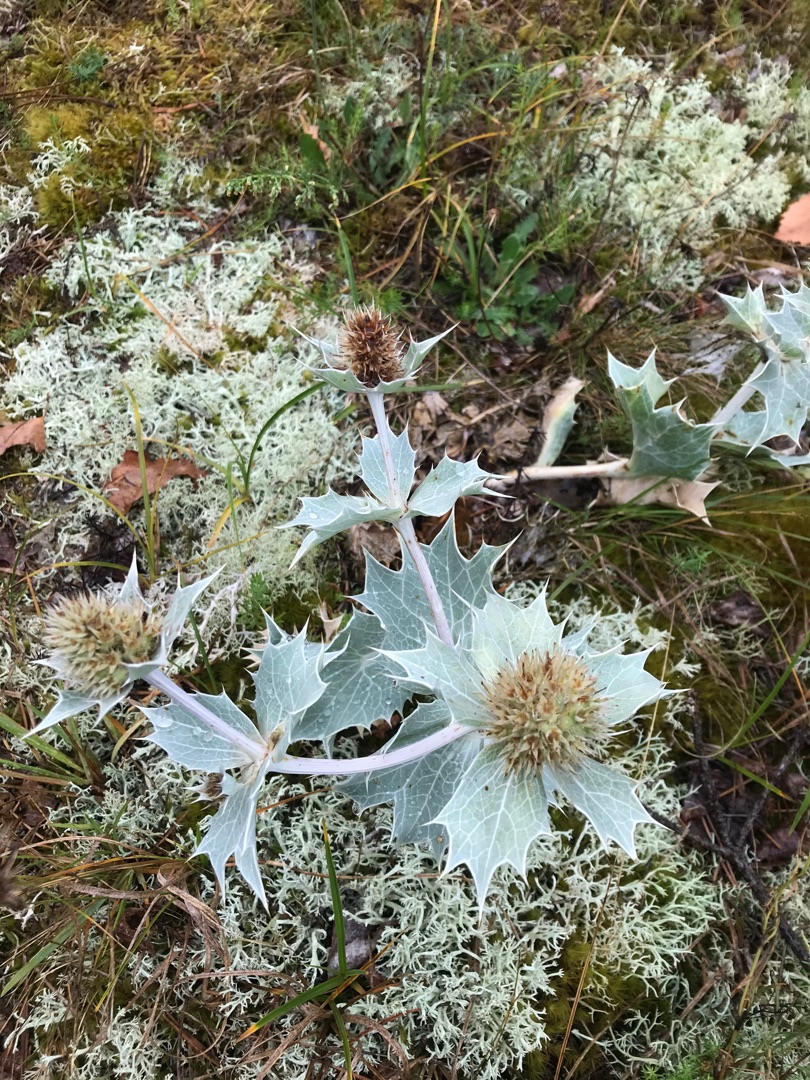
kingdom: Plantae
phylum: Tracheophyta
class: Magnoliopsida
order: Apiales
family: Apiaceae
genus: Eryngium
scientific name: Eryngium maritimum
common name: Strand-mandstro
